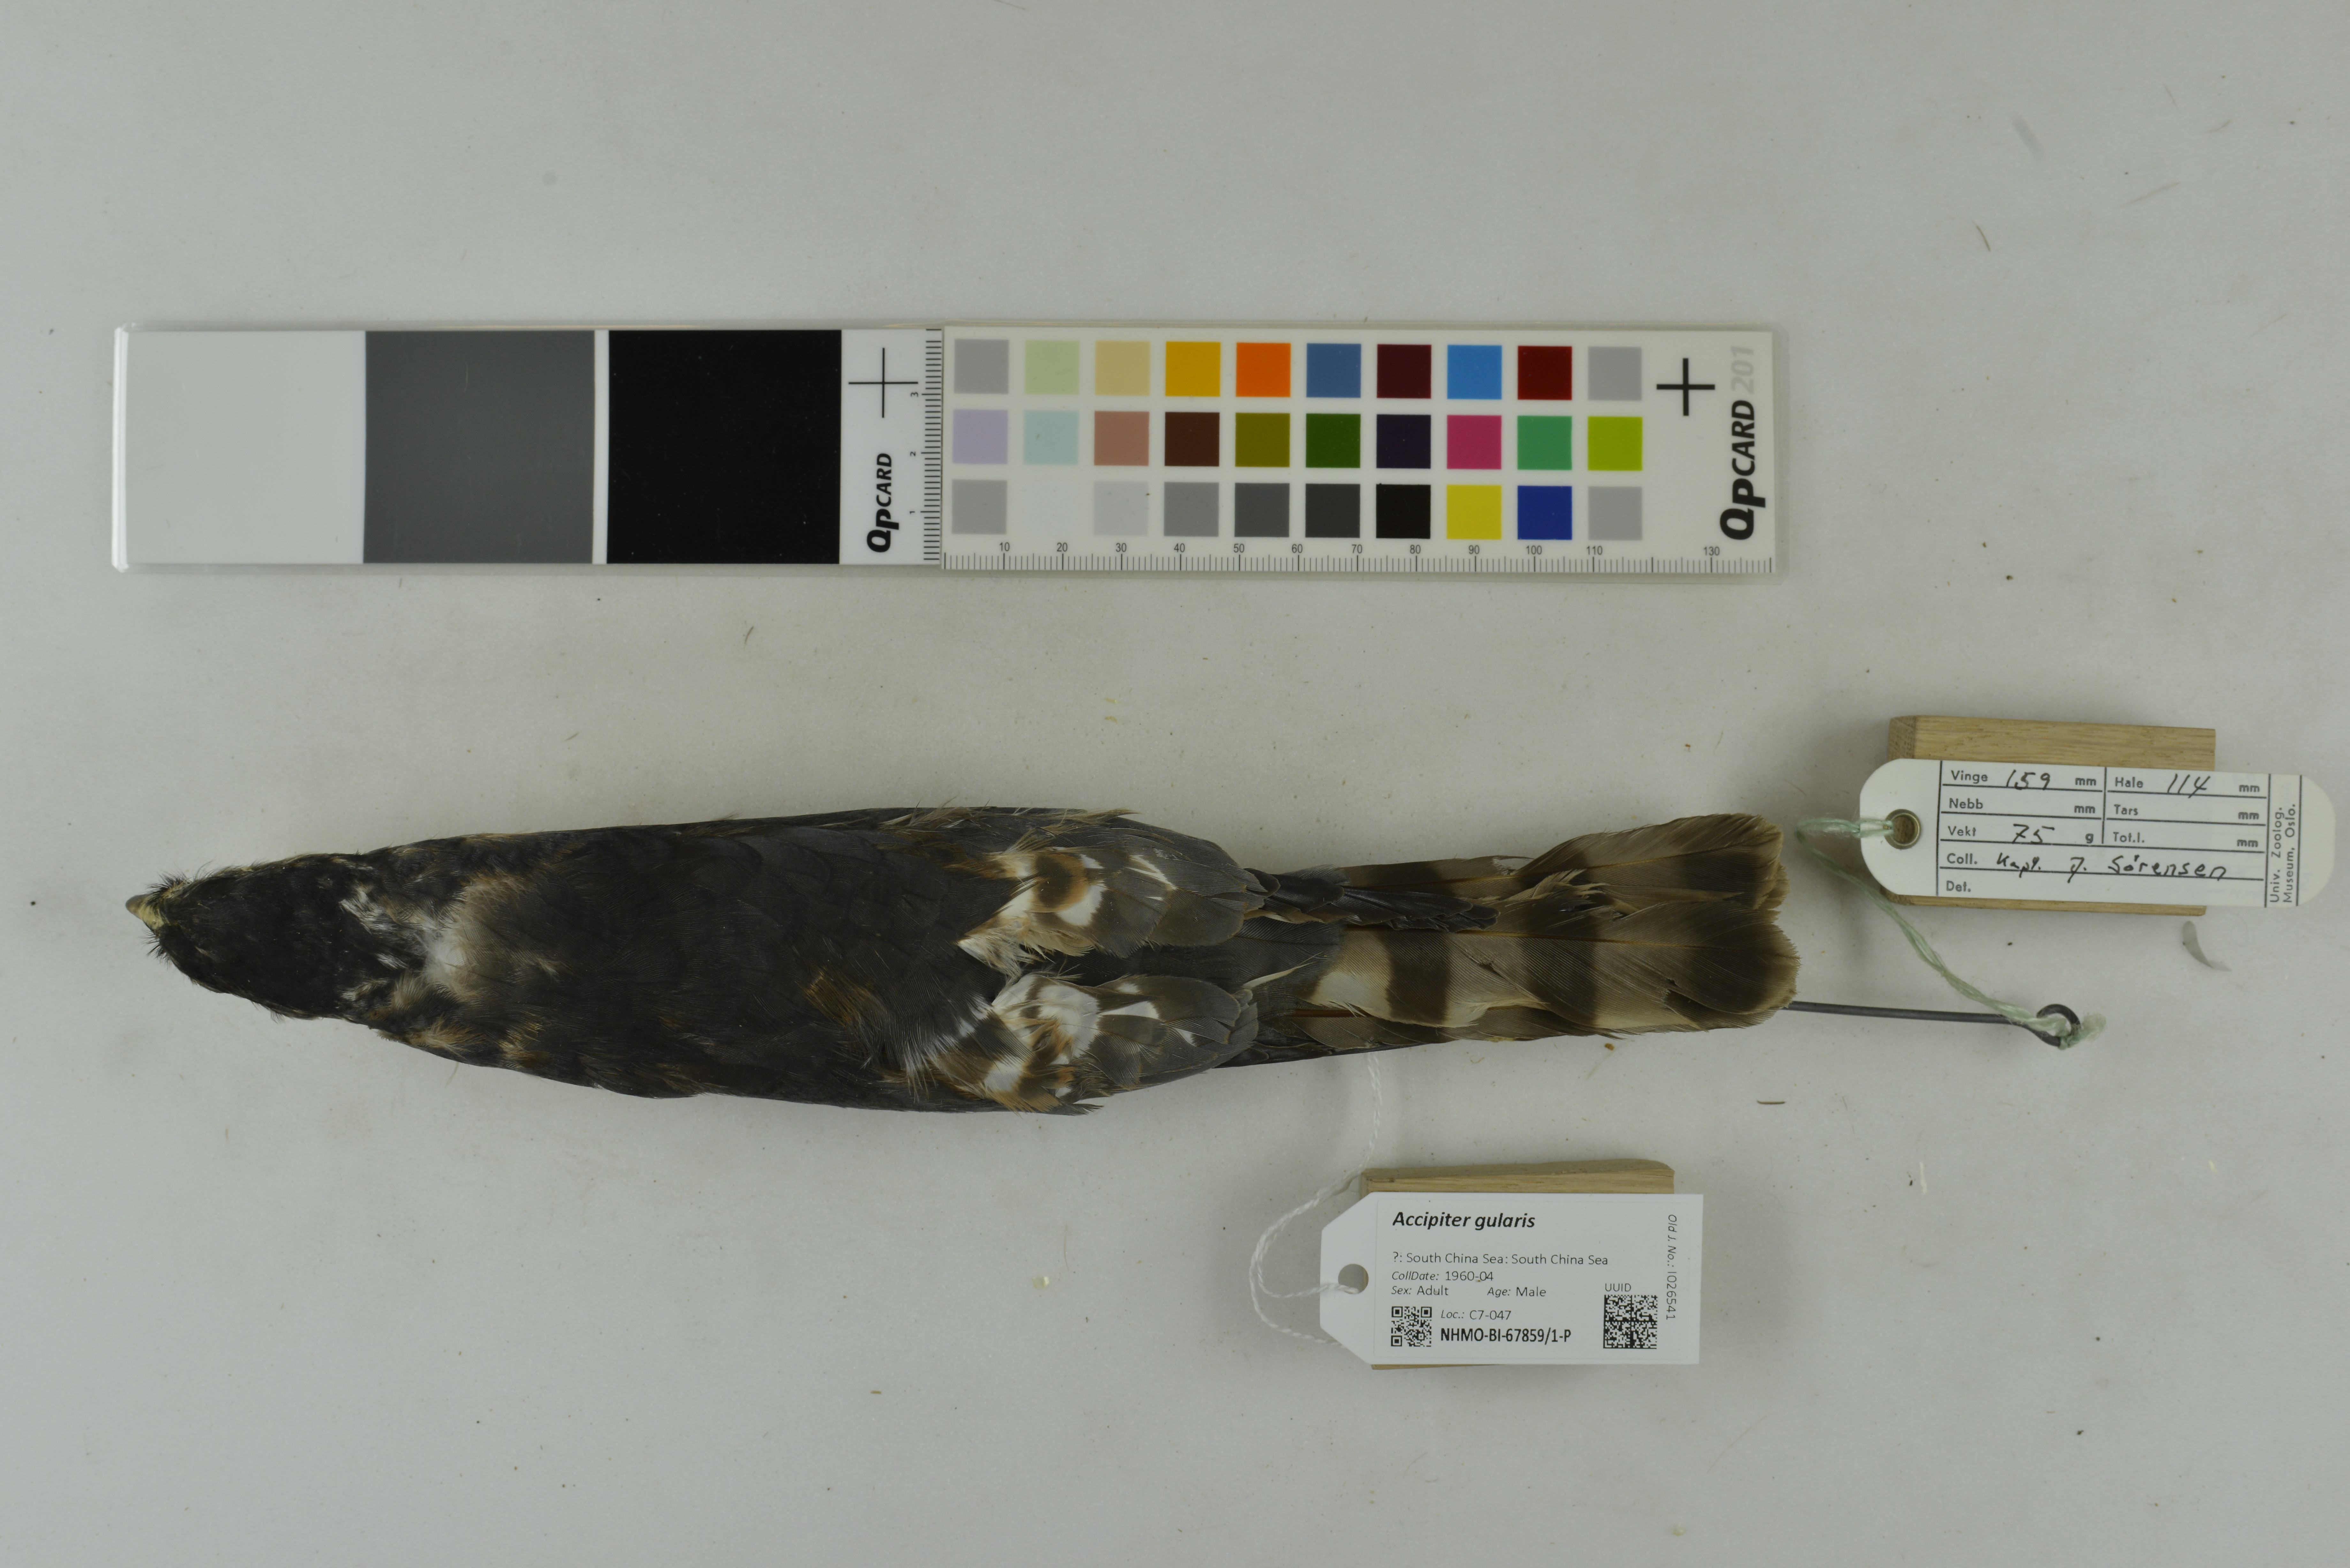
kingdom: Animalia
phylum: Chordata
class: Aves
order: Accipitriformes
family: Accipitridae
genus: Accipiter
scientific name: Accipiter gularis
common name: Japanese sparrowhawk
